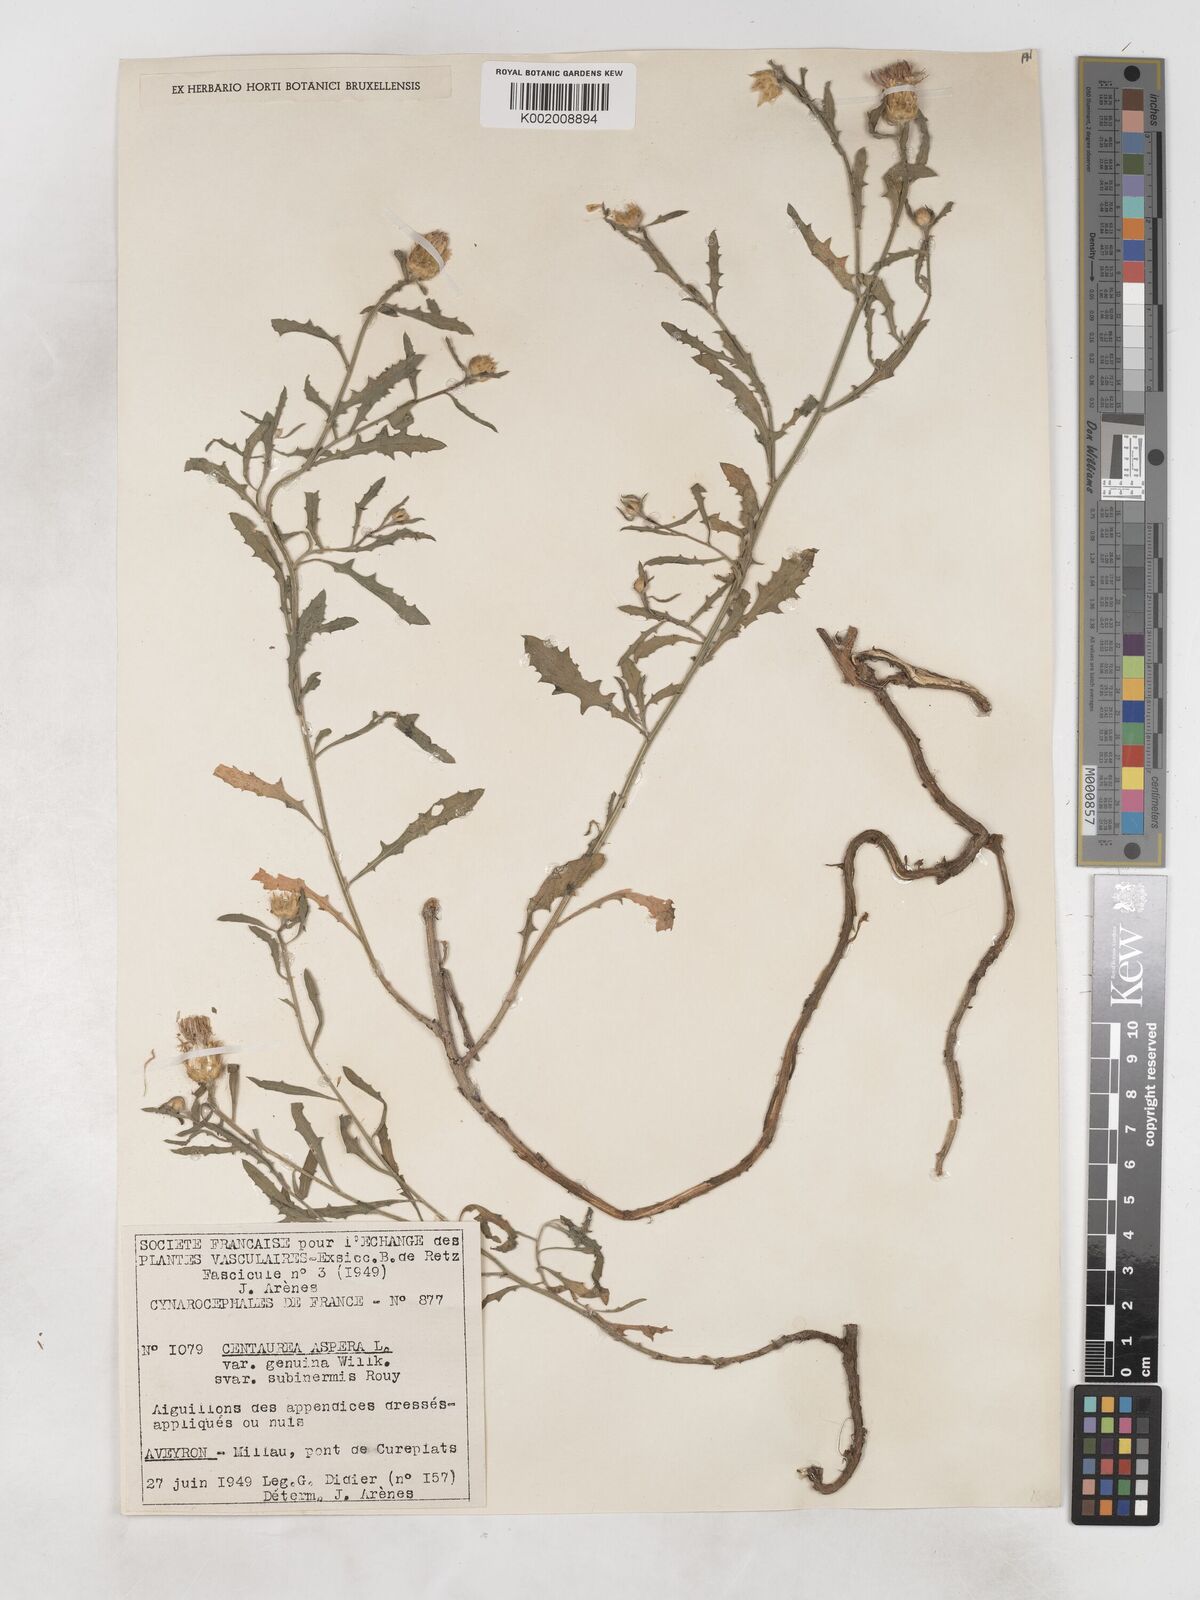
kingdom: Plantae
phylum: Tracheophyta
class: Magnoliopsida
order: Asterales
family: Asteraceae
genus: Centaurea
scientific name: Centaurea aspera
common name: Rough star-thistle
